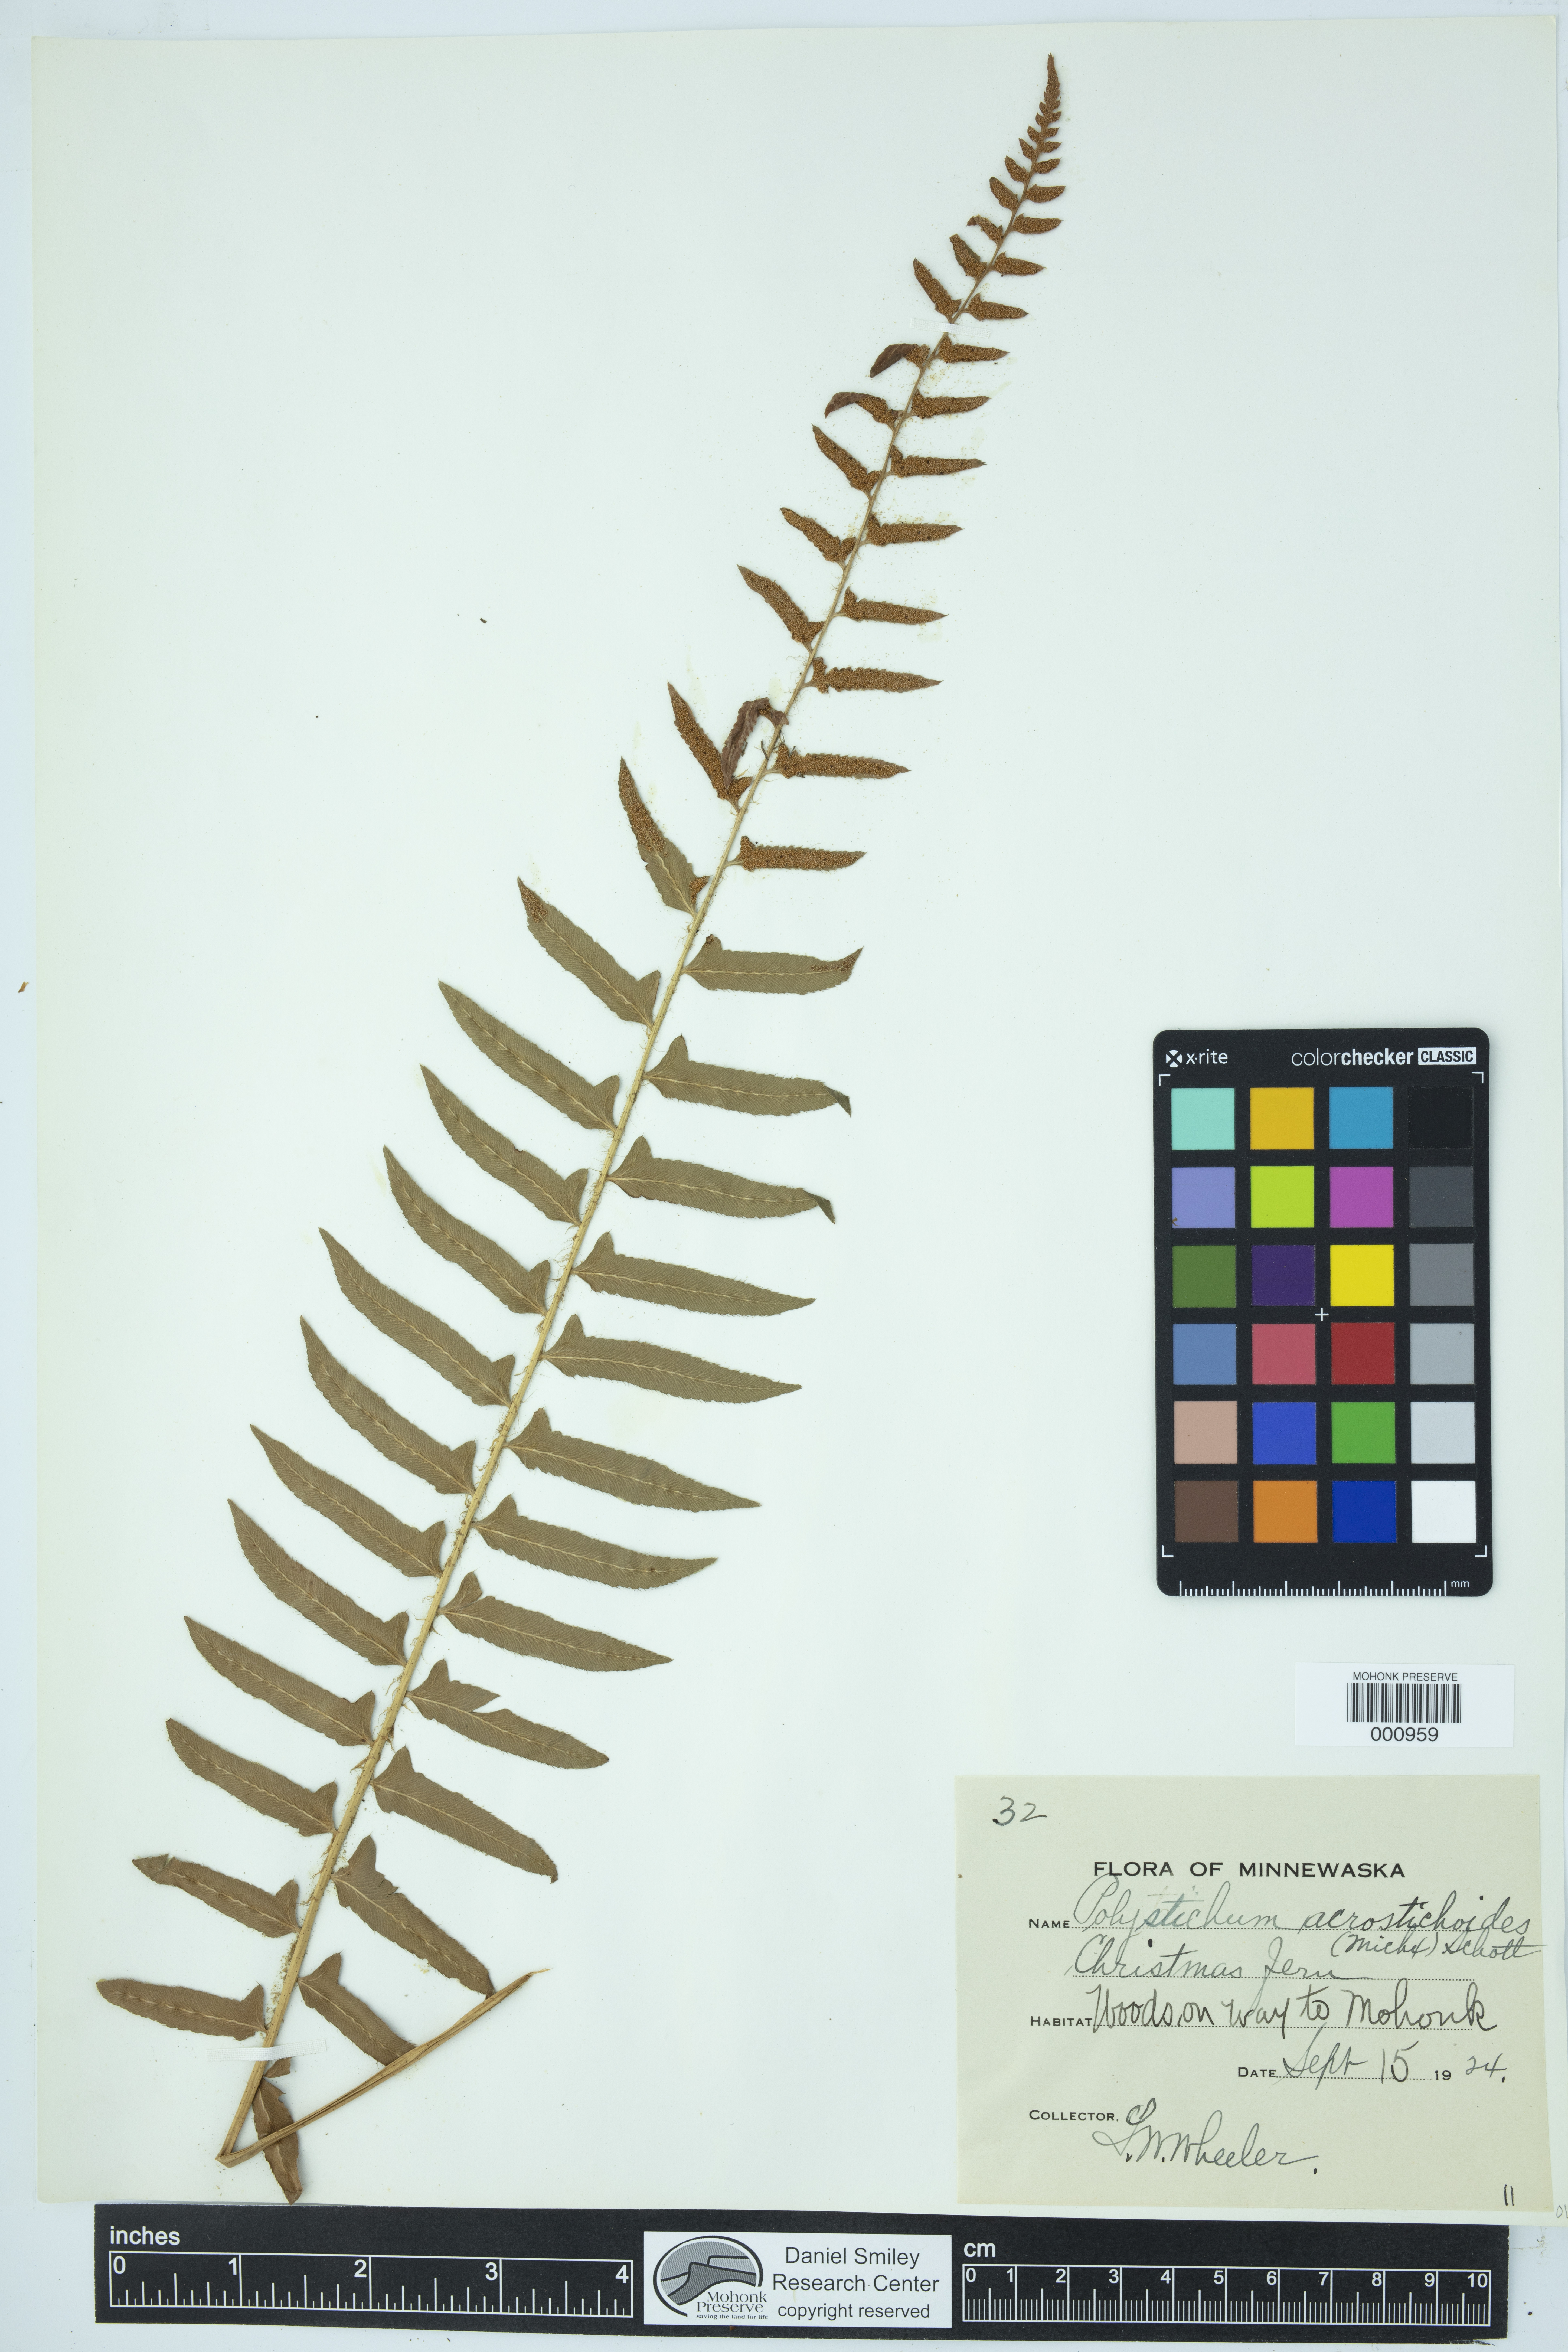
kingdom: Plantae
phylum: Tracheophyta
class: Polypodiopsida
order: Polypodiales
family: Dryopteridaceae
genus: Polystichum
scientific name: Polystichum acrostichoides
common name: Christmas fern
